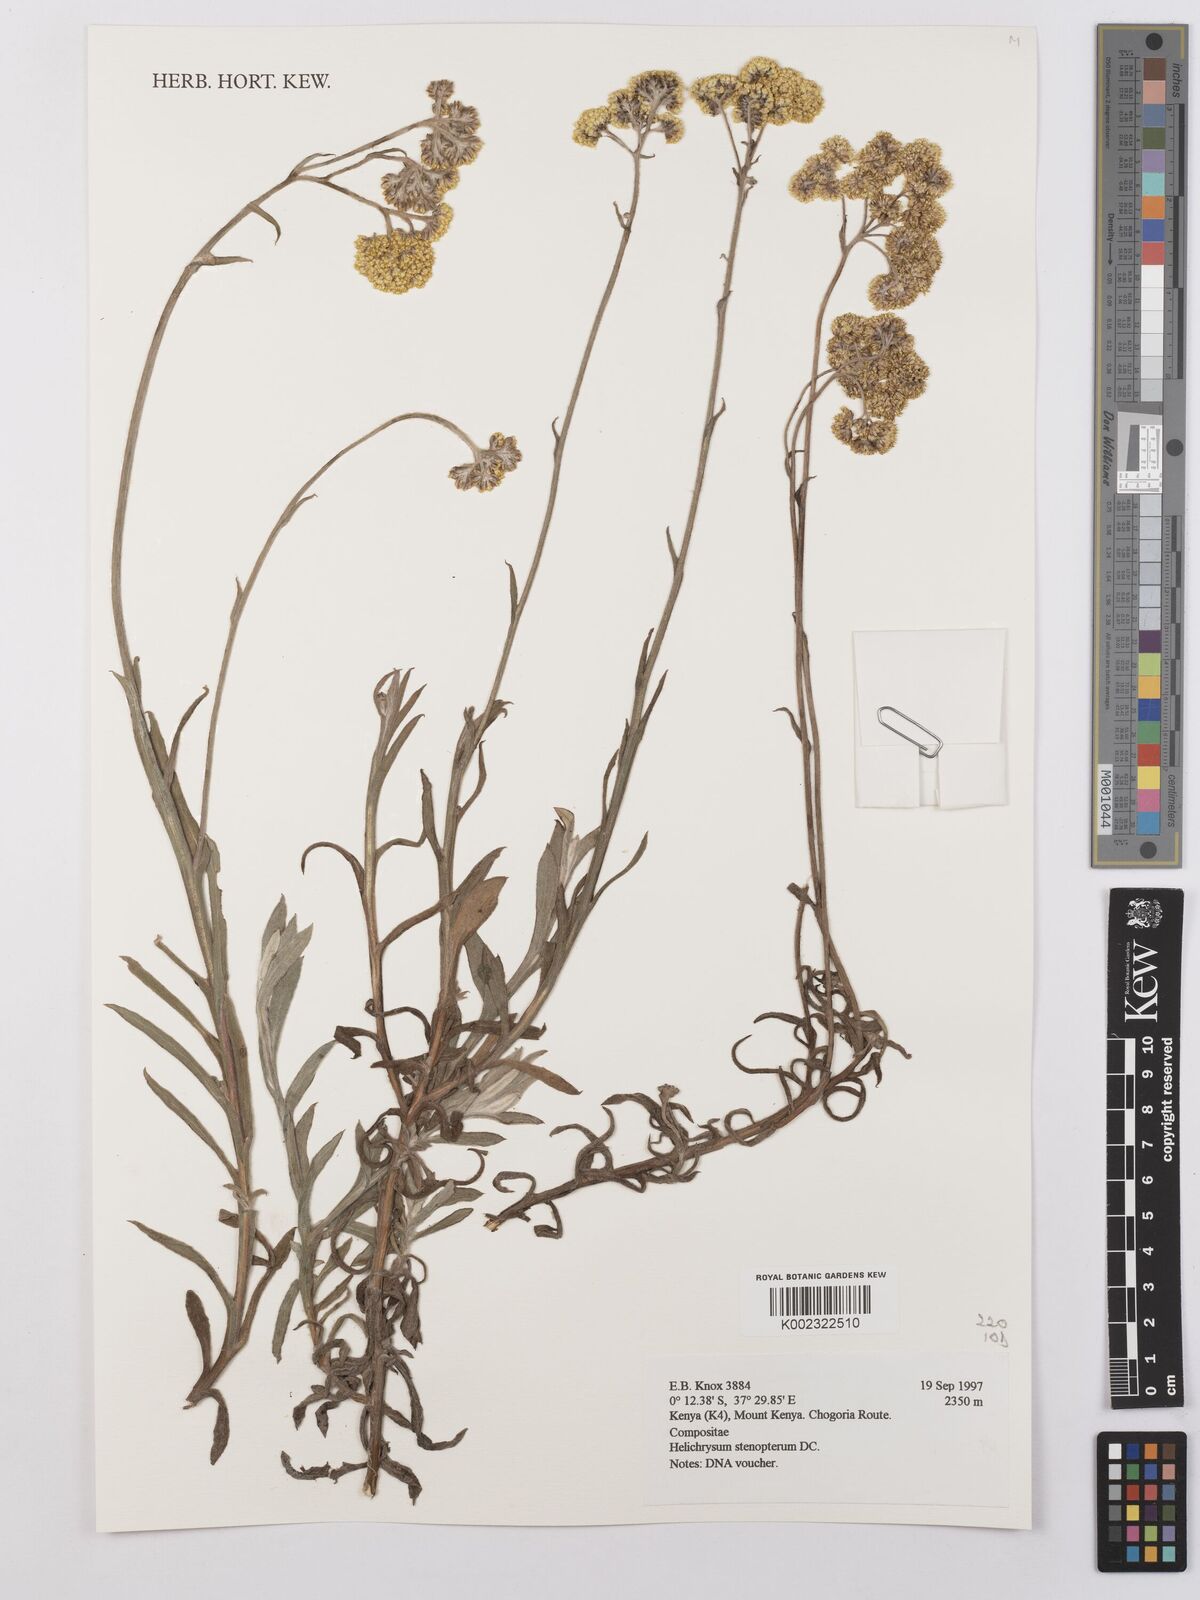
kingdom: Plantae
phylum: Tracheophyta
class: Magnoliopsida
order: Asterales
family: Asteraceae
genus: Helichrysum
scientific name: Helichrysum stenopterum
